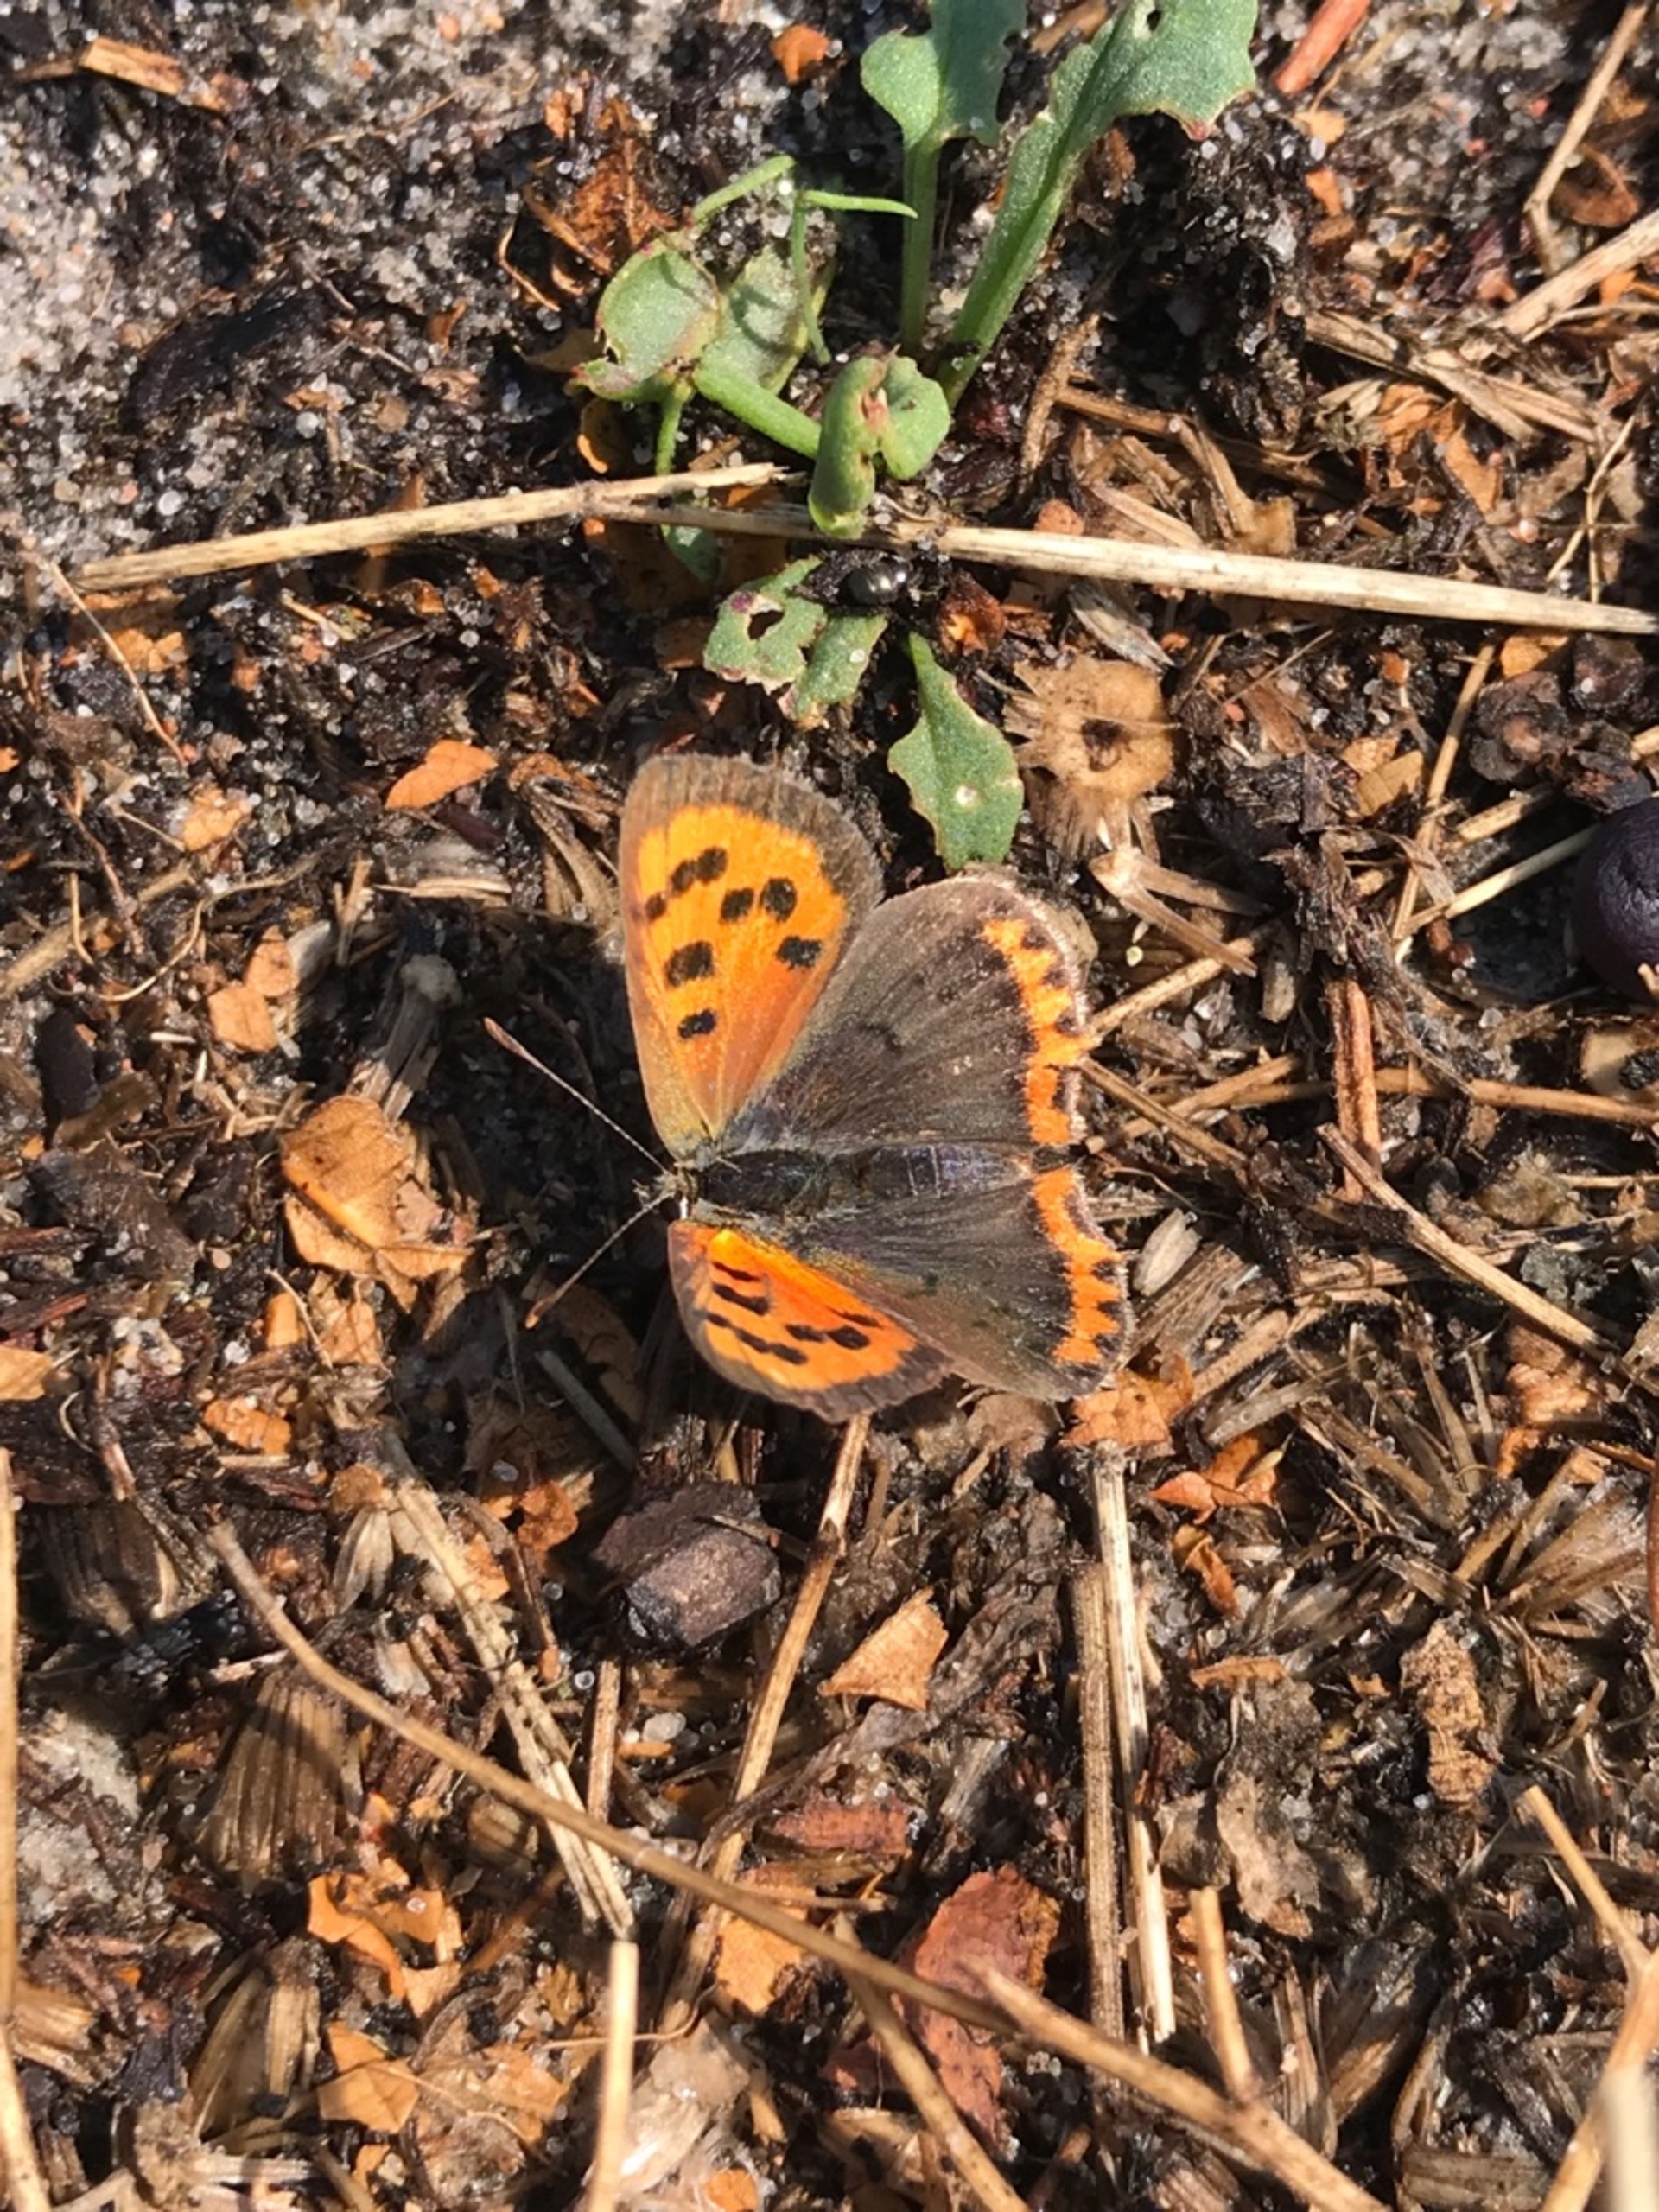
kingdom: Animalia
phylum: Arthropoda
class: Insecta
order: Lepidoptera
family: Lycaenidae
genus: Lycaena
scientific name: Lycaena phlaeas
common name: Lille ildfugl
